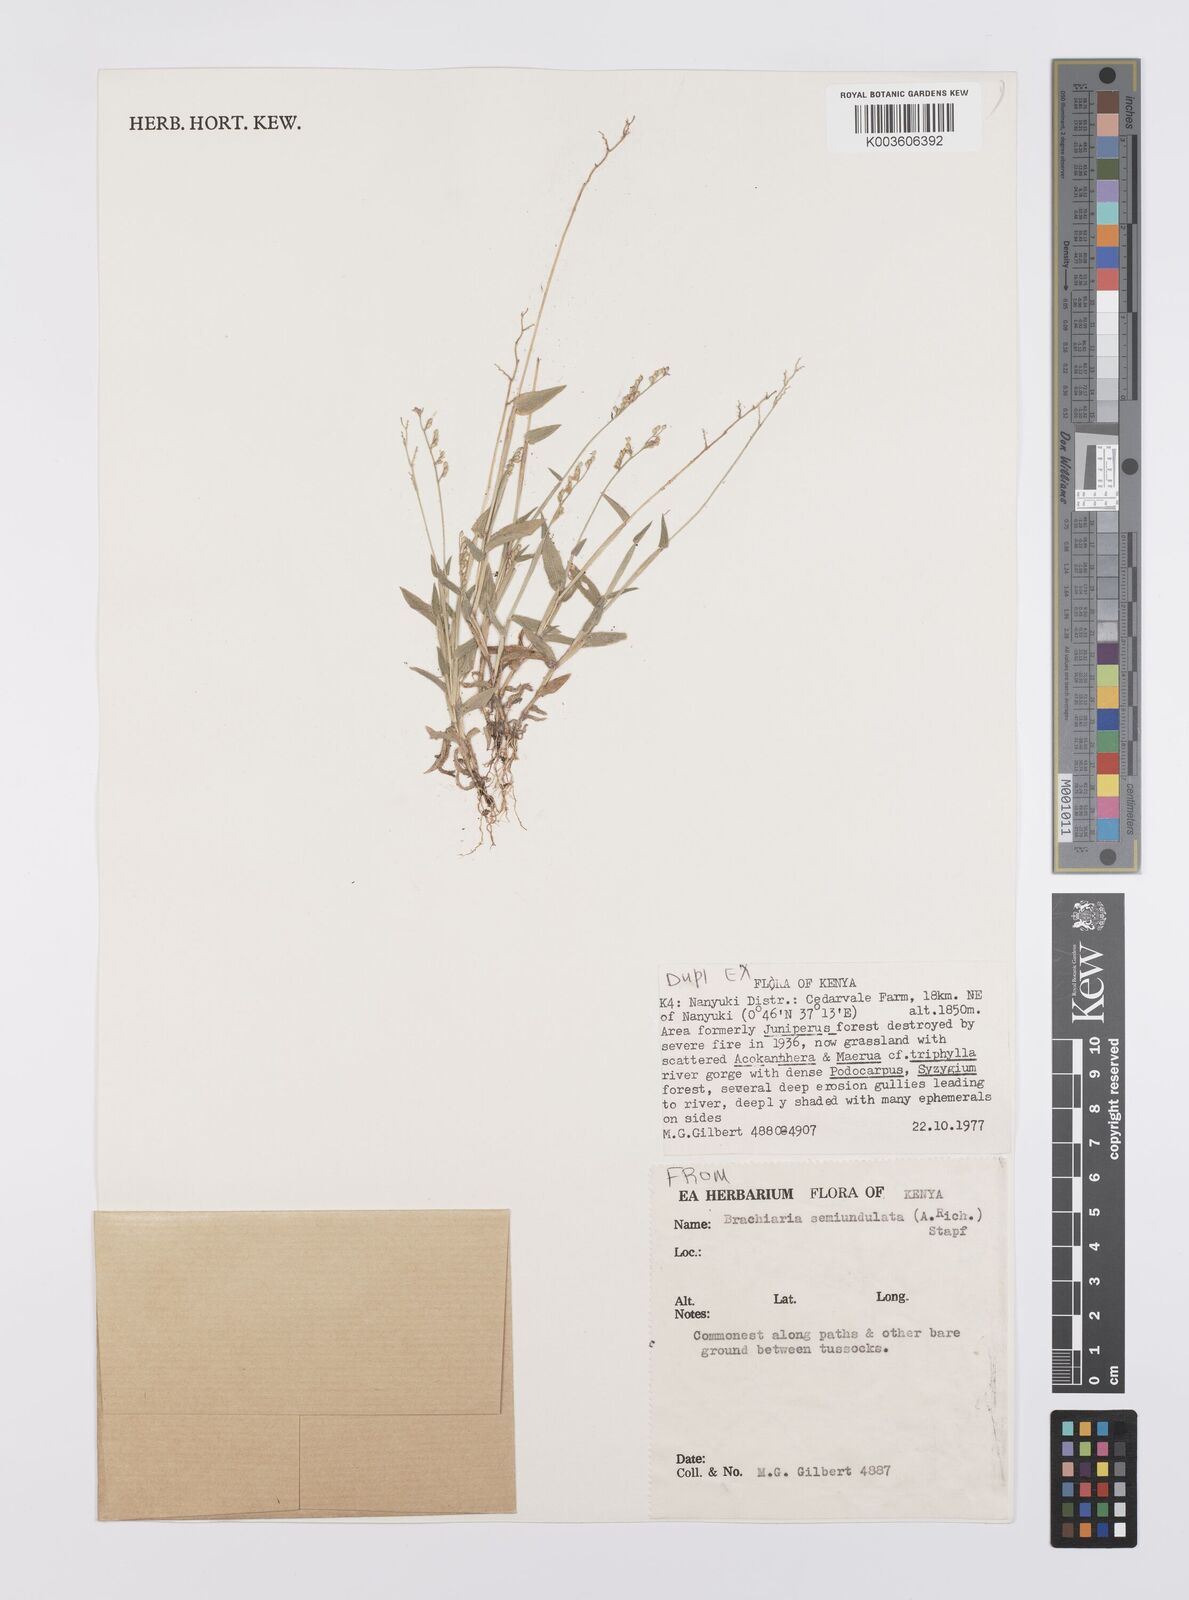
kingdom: Plantae
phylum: Tracheophyta
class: Liliopsida
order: Poales
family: Poaceae
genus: Urochloa
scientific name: Urochloa semiundulata
